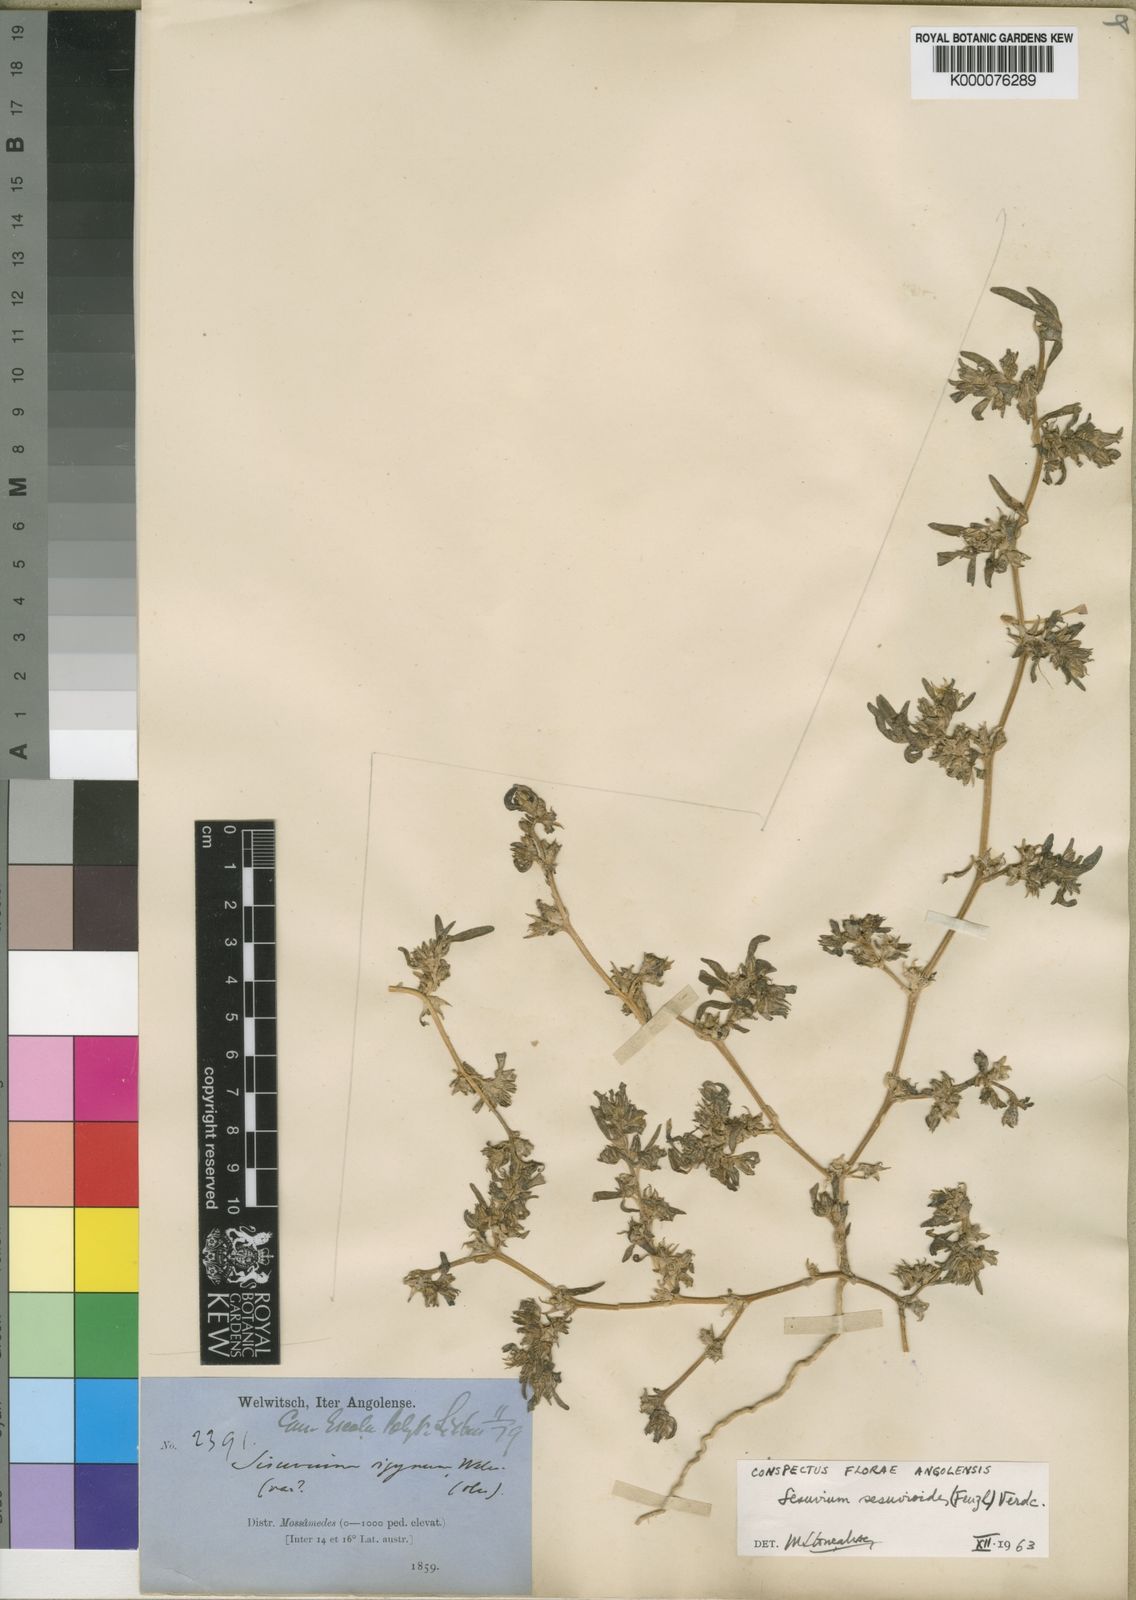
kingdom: Plantae
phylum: Tracheophyta
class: Magnoliopsida
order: Caryophyllales
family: Aizoaceae
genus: Sesuvium
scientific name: Sesuvium
